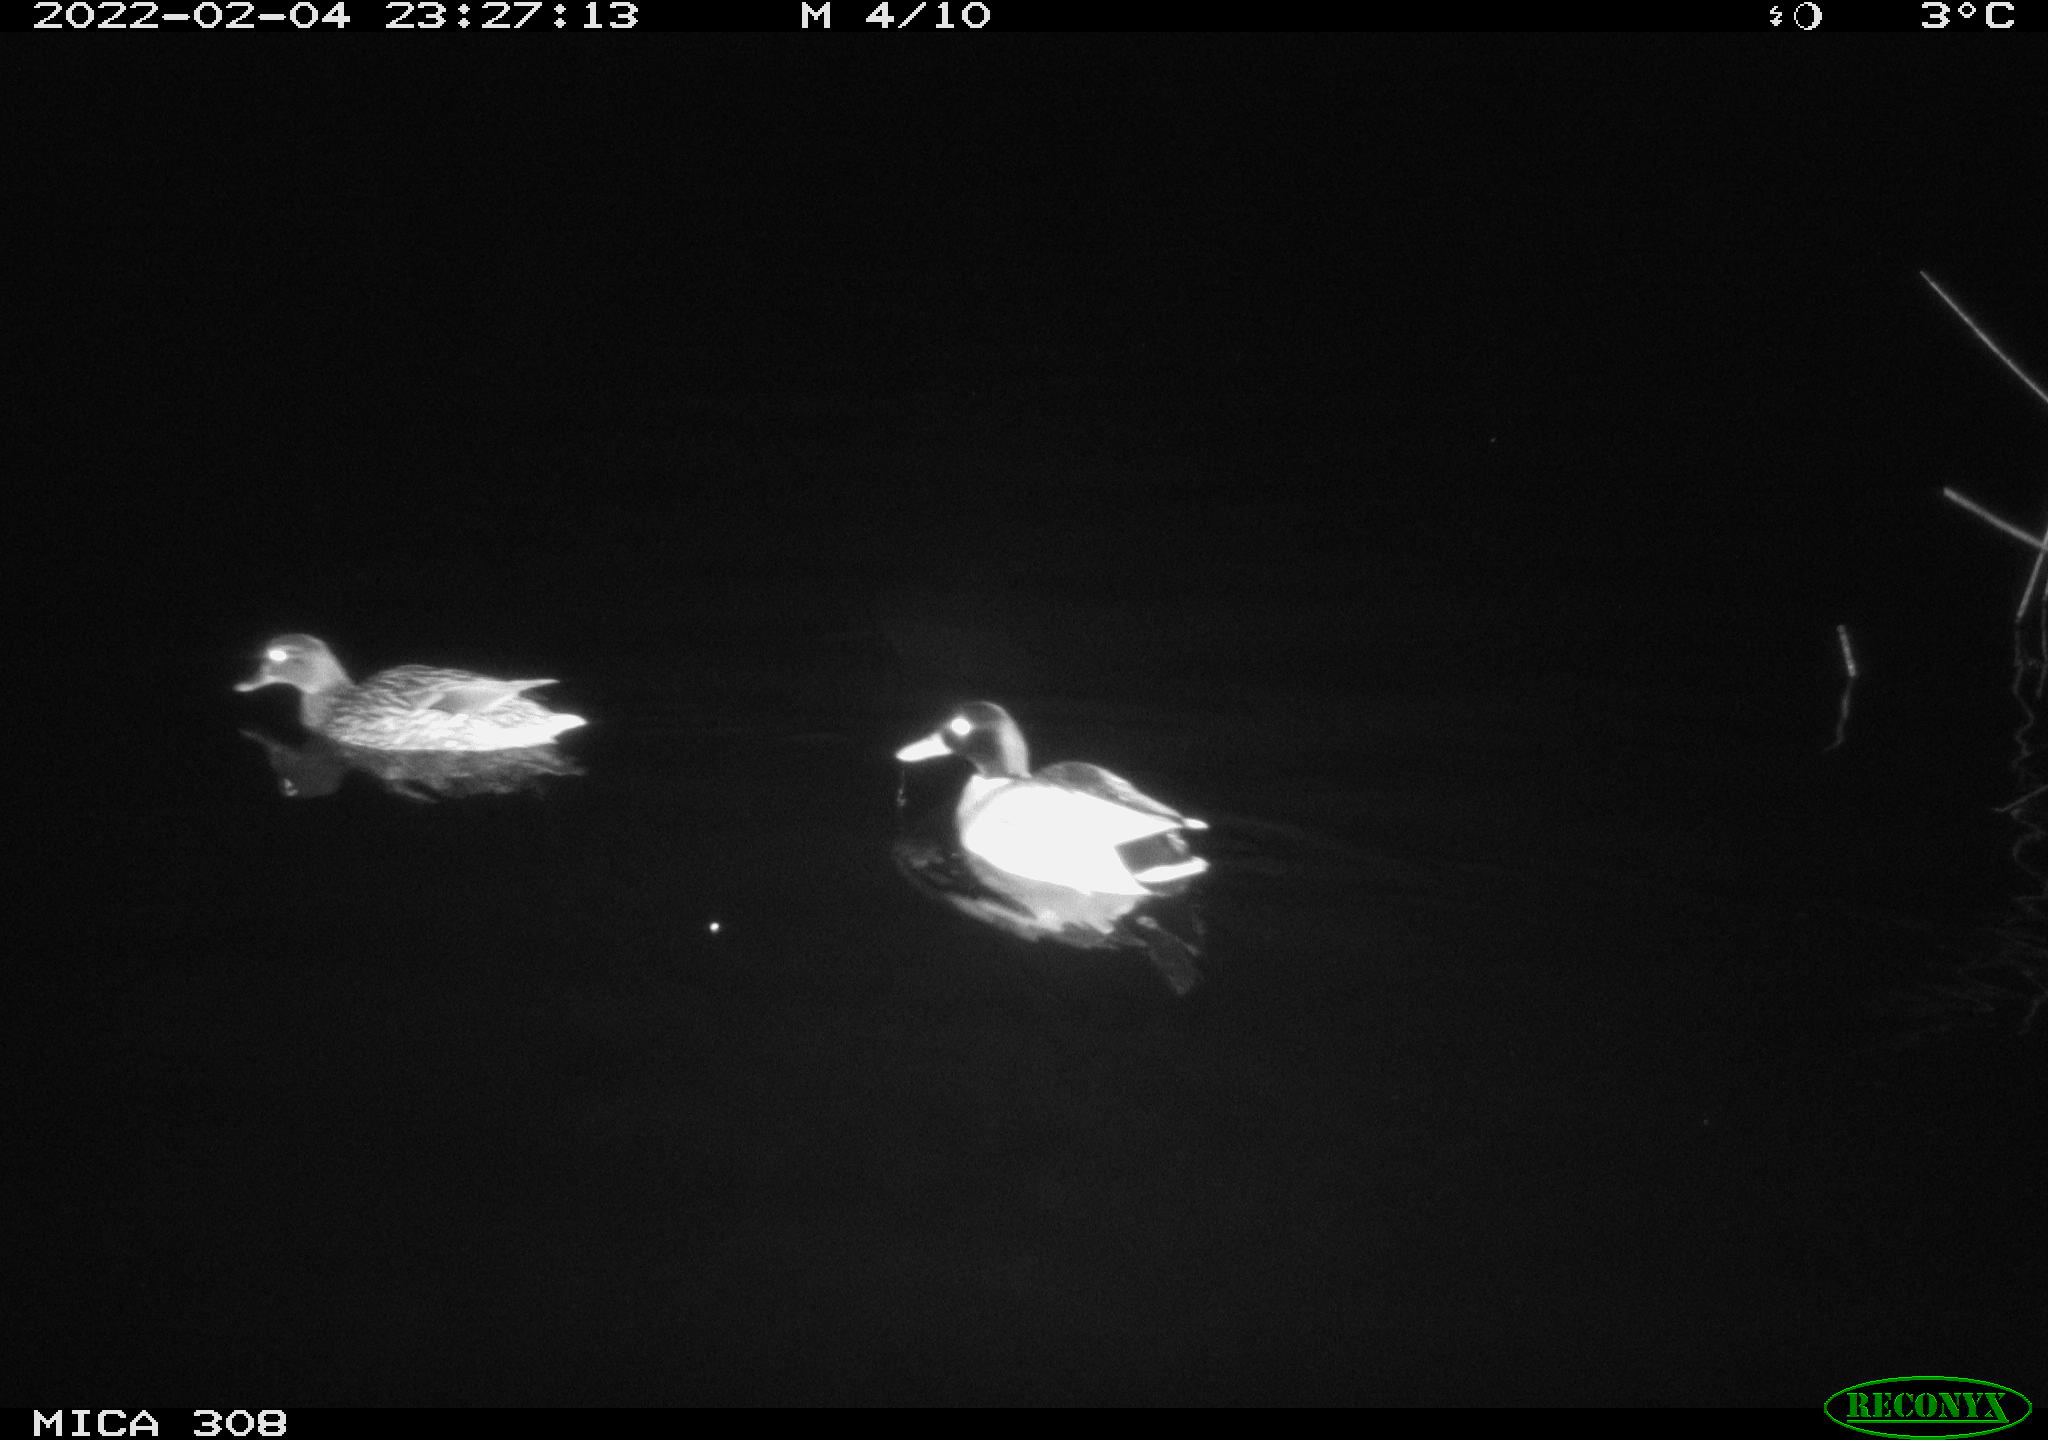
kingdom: Animalia
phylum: Chordata
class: Aves
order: Anseriformes
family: Anatidae
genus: Anas
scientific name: Anas platyrhynchos
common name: Mallard
